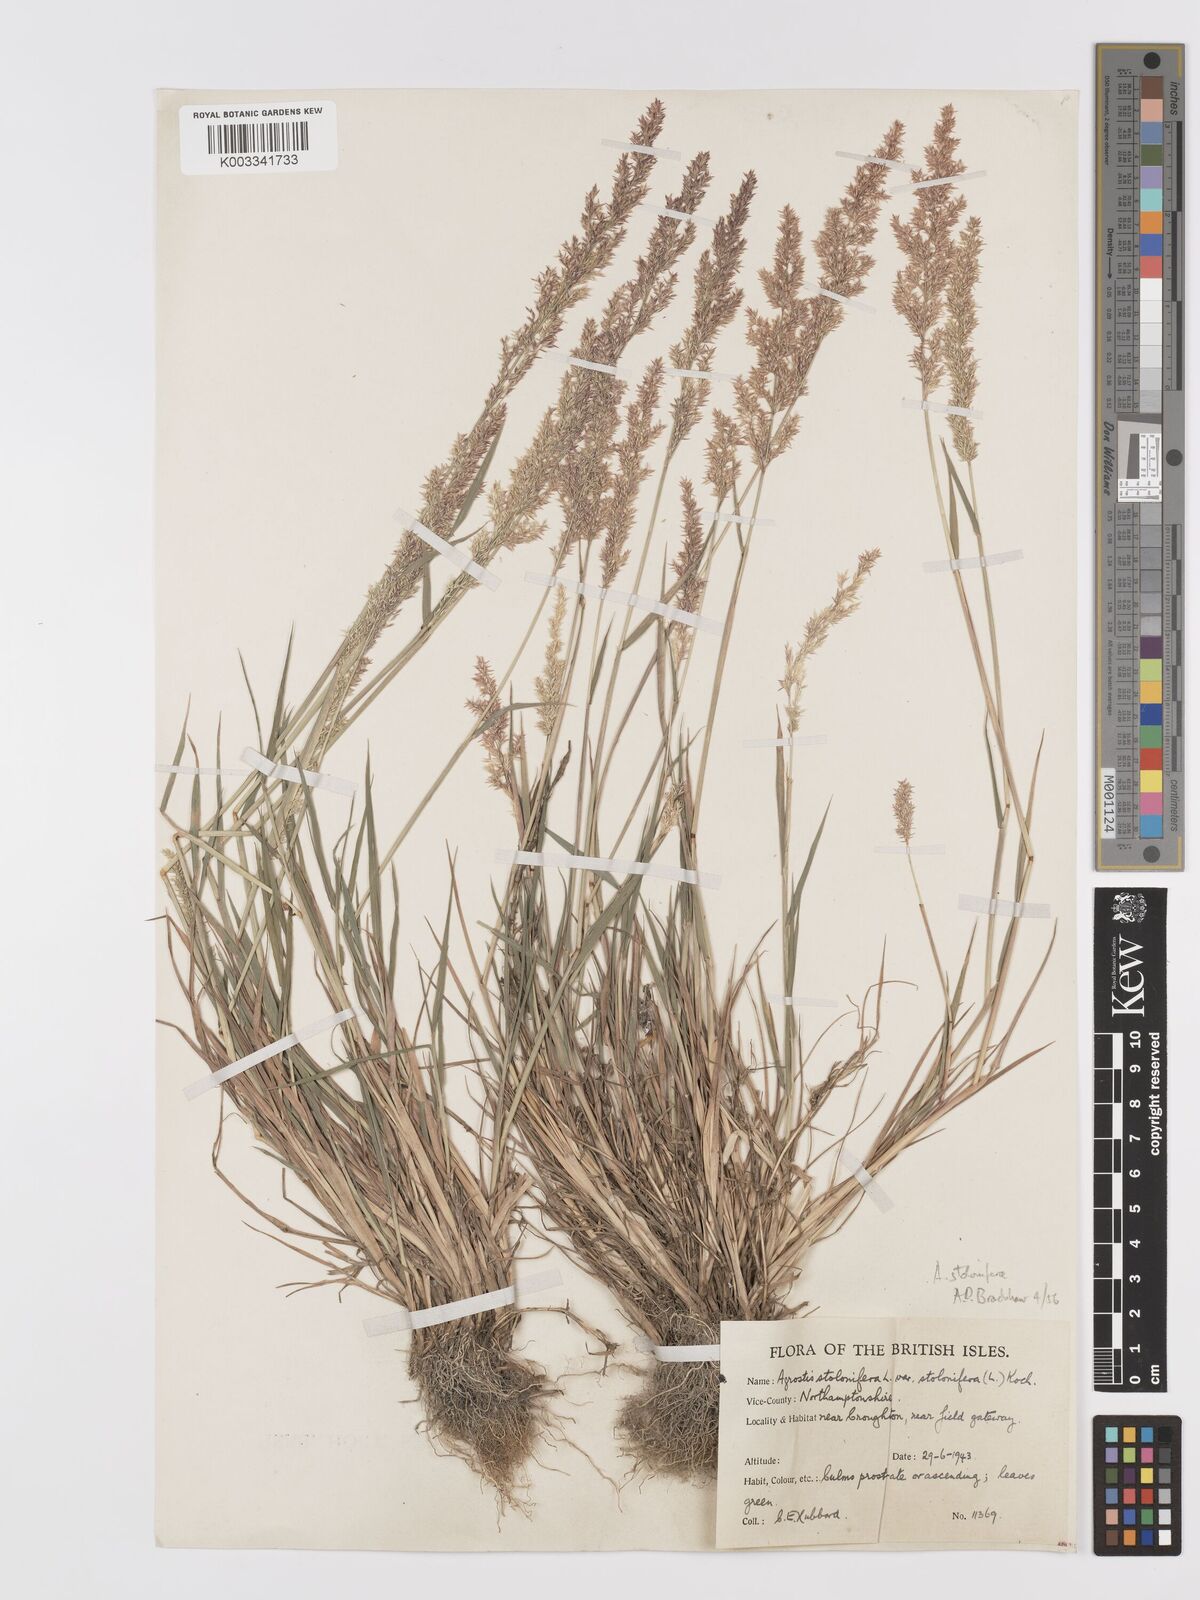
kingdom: Plantae
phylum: Tracheophyta
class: Liliopsida
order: Poales
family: Poaceae
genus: Agrostis
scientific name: Agrostis stolonifera
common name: Creeping bentgrass
